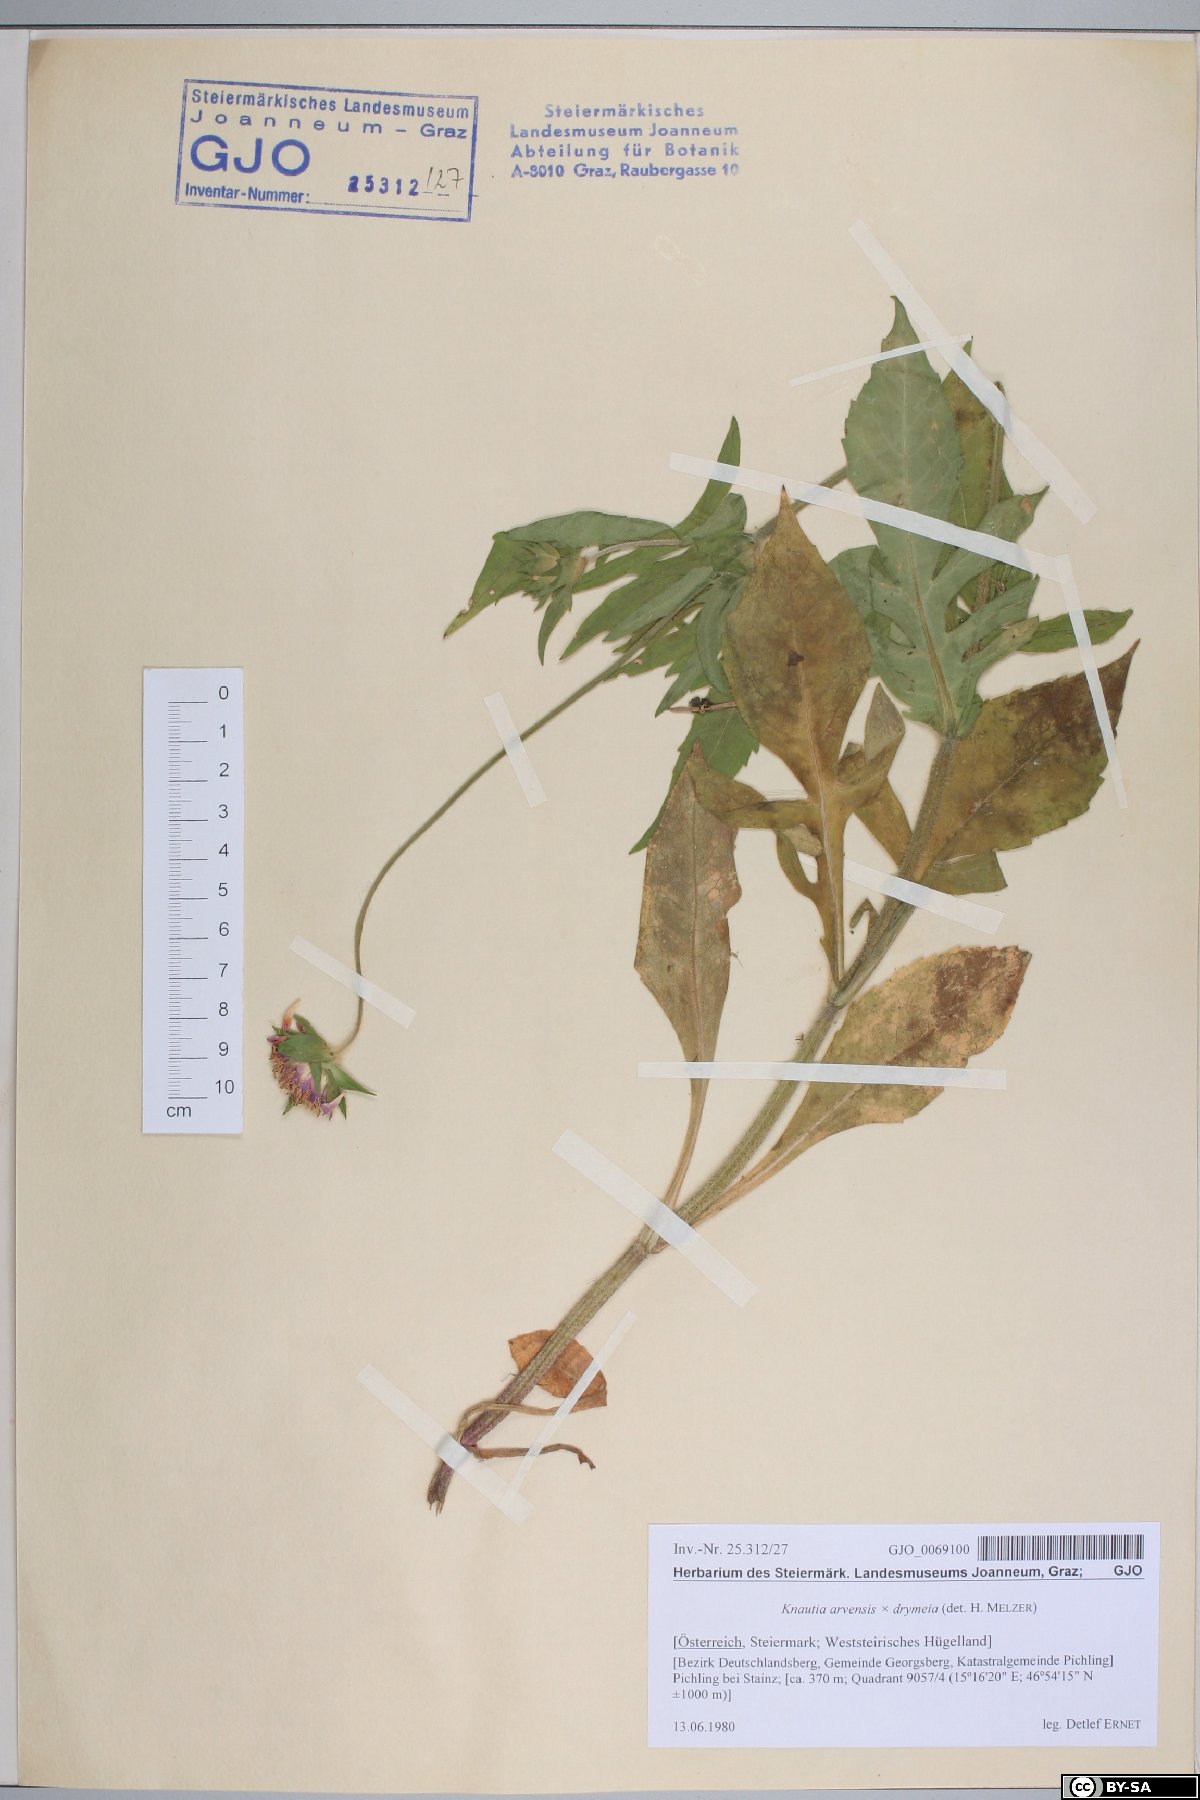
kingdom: Plantae
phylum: Tracheophyta
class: Magnoliopsida
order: Dipsacales
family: Dipsacaceae
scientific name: Dipsacaceae
